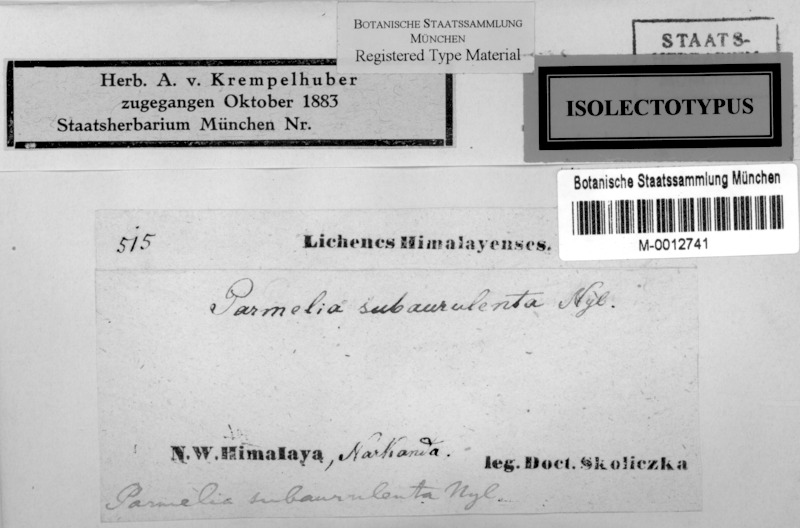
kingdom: Fungi
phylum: Ascomycota
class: Lecanoromycetes
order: Lecanorales
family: Parmeliaceae
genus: Myelochroa
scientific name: Myelochroa
